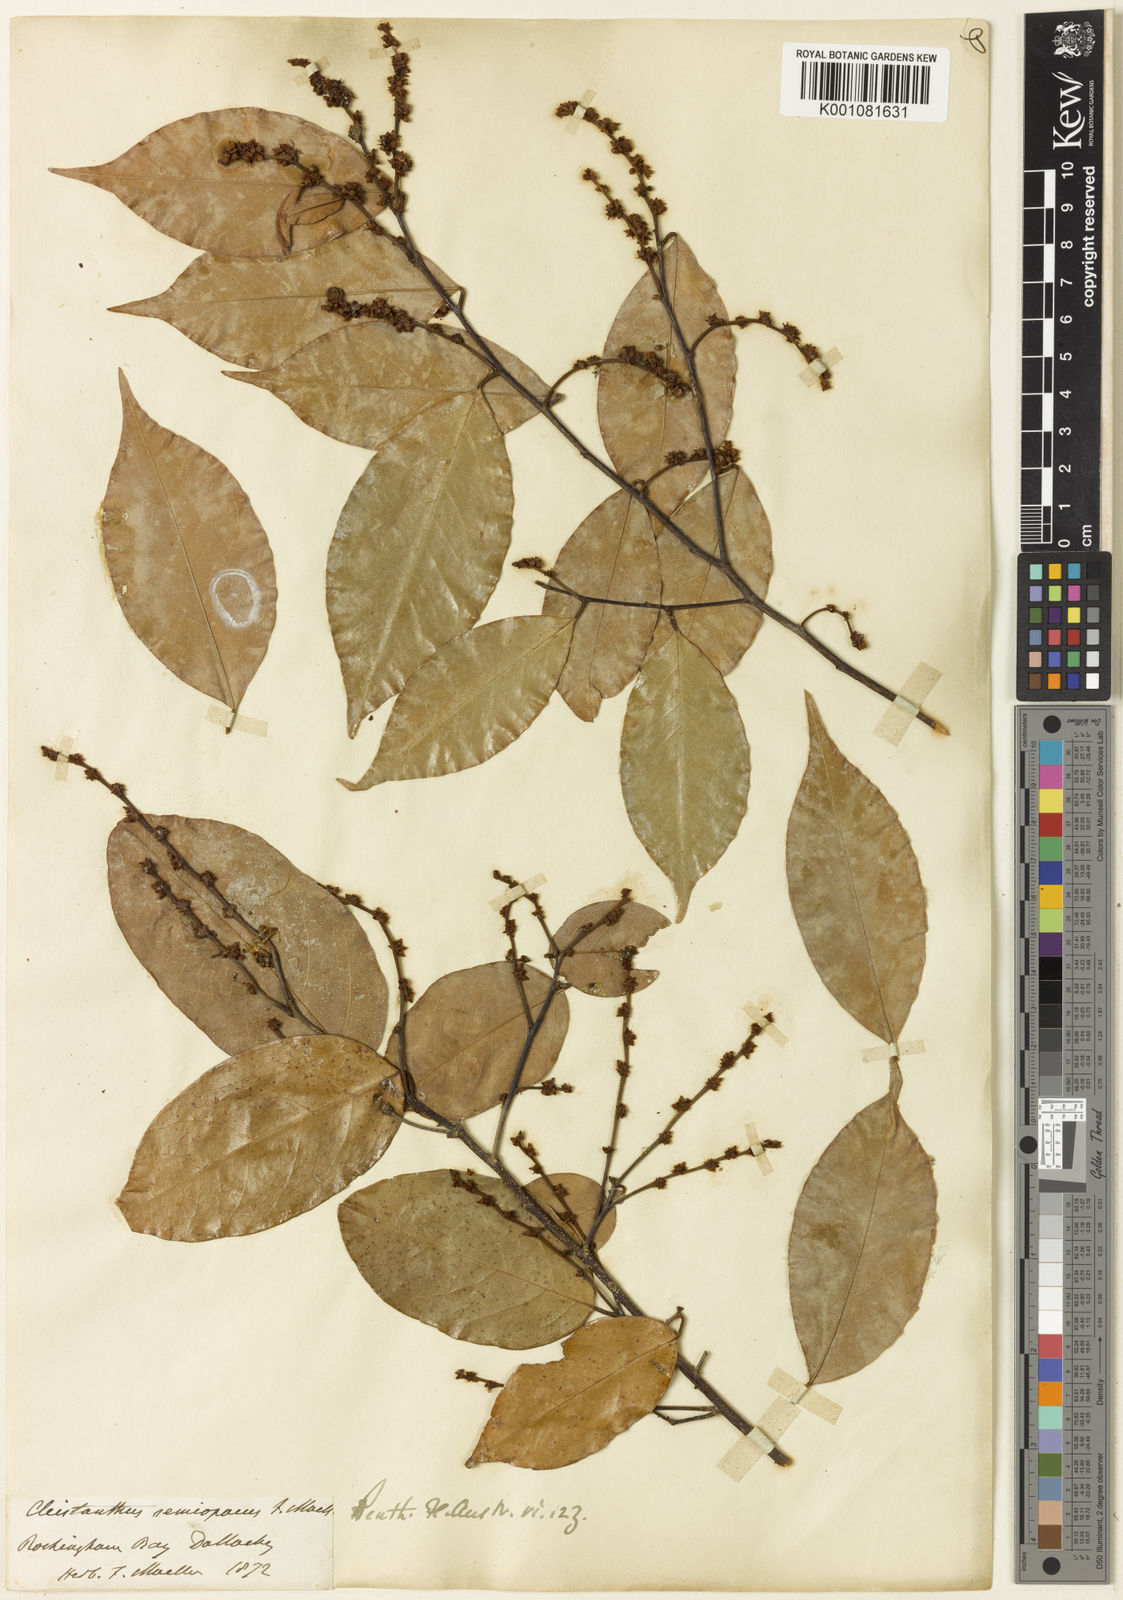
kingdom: Plantae
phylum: Tracheophyta
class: Magnoliopsida
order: Malpighiales
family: Phyllanthaceae
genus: Cleistanthus
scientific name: Cleistanthus semiopacus
